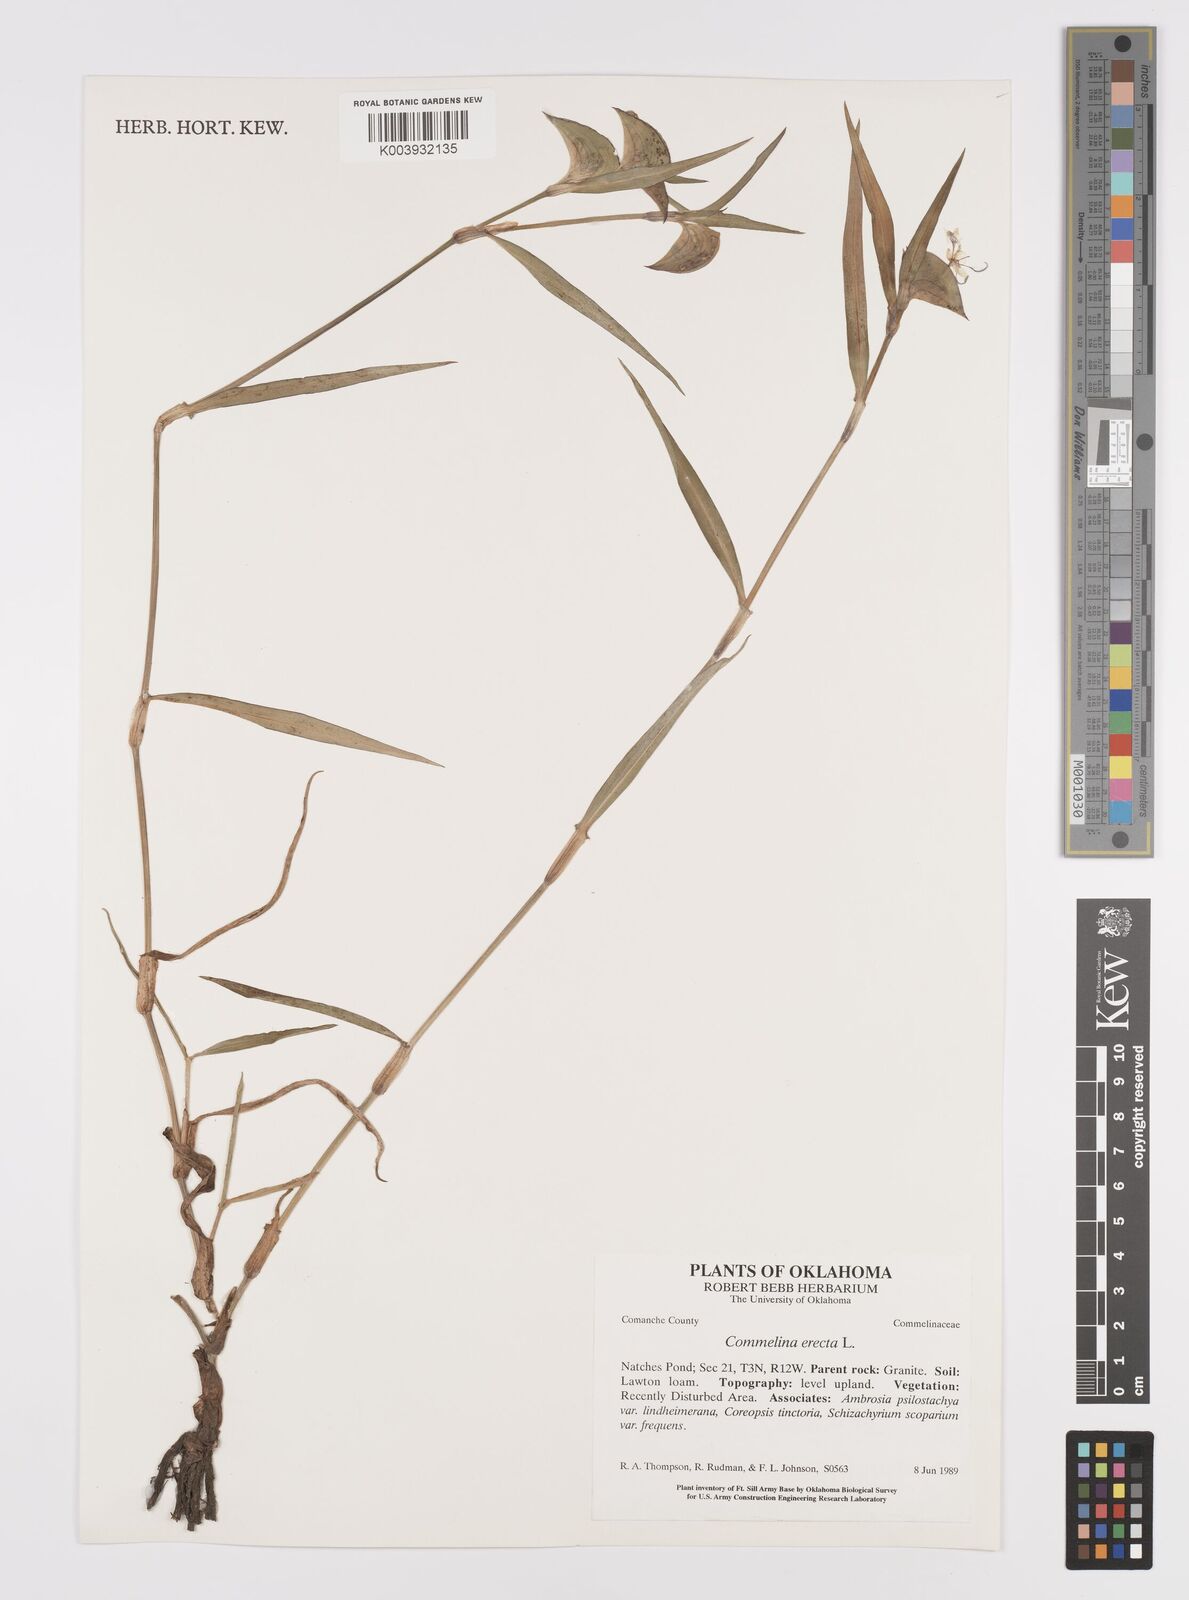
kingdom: Plantae
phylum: Tracheophyta
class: Liliopsida
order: Commelinales
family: Commelinaceae
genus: Commelina
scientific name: Commelina erecta
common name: Blousel blommetjie
